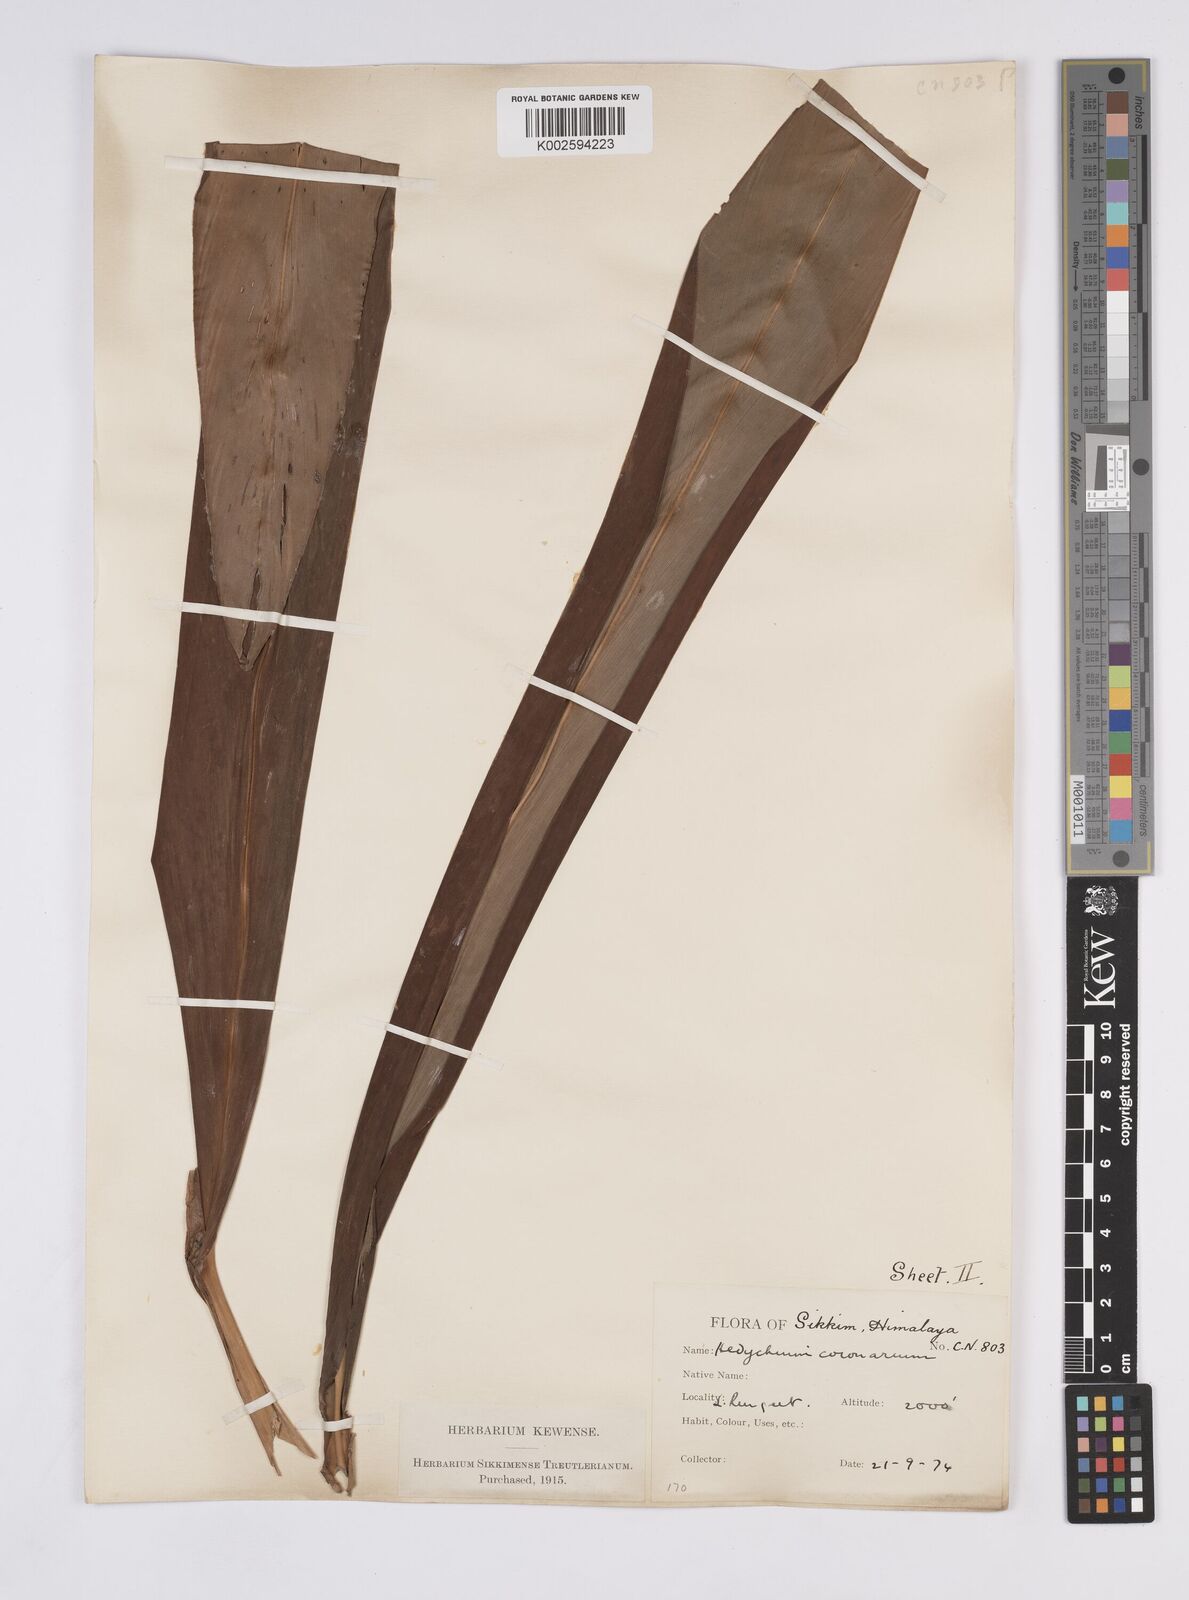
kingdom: Plantae
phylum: Tracheophyta
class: Liliopsida
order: Zingiberales
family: Zingiberaceae
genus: Hedychium
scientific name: Hedychium coronarium
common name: White garland-lily
